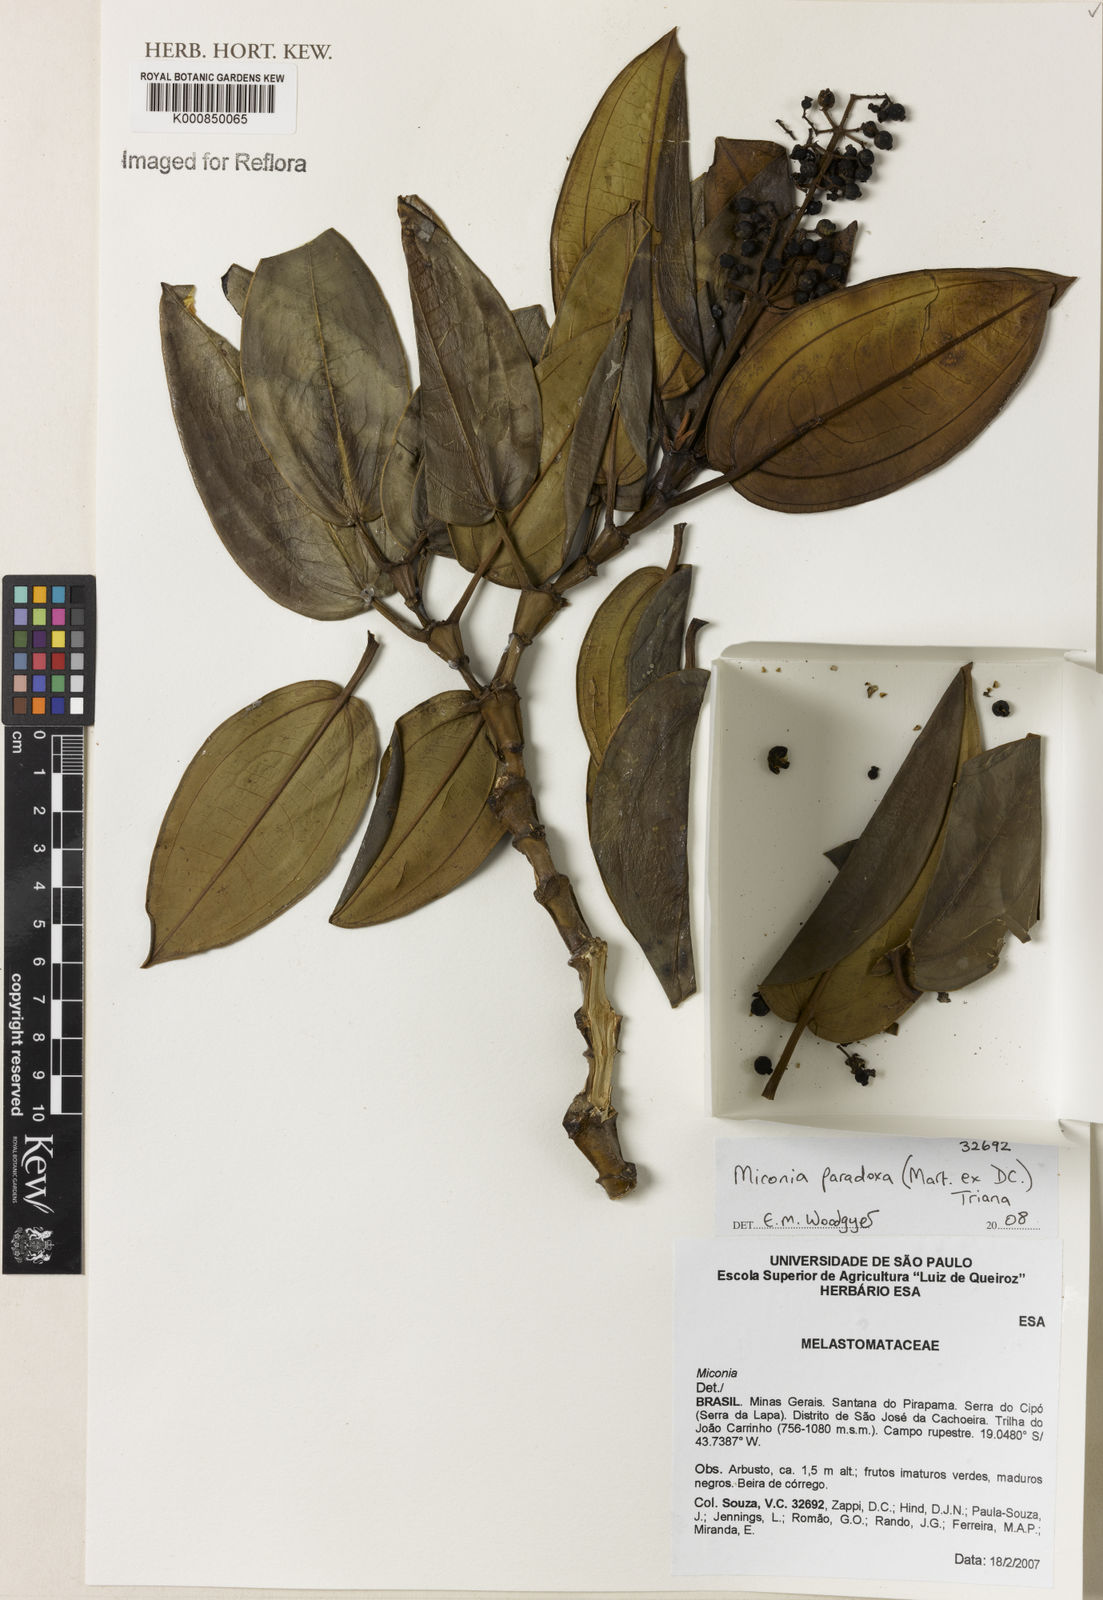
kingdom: Plantae
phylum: Tracheophyta
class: Magnoliopsida
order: Myrtales
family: Melastomataceae
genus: Miconia
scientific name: Miconia paradoxa
